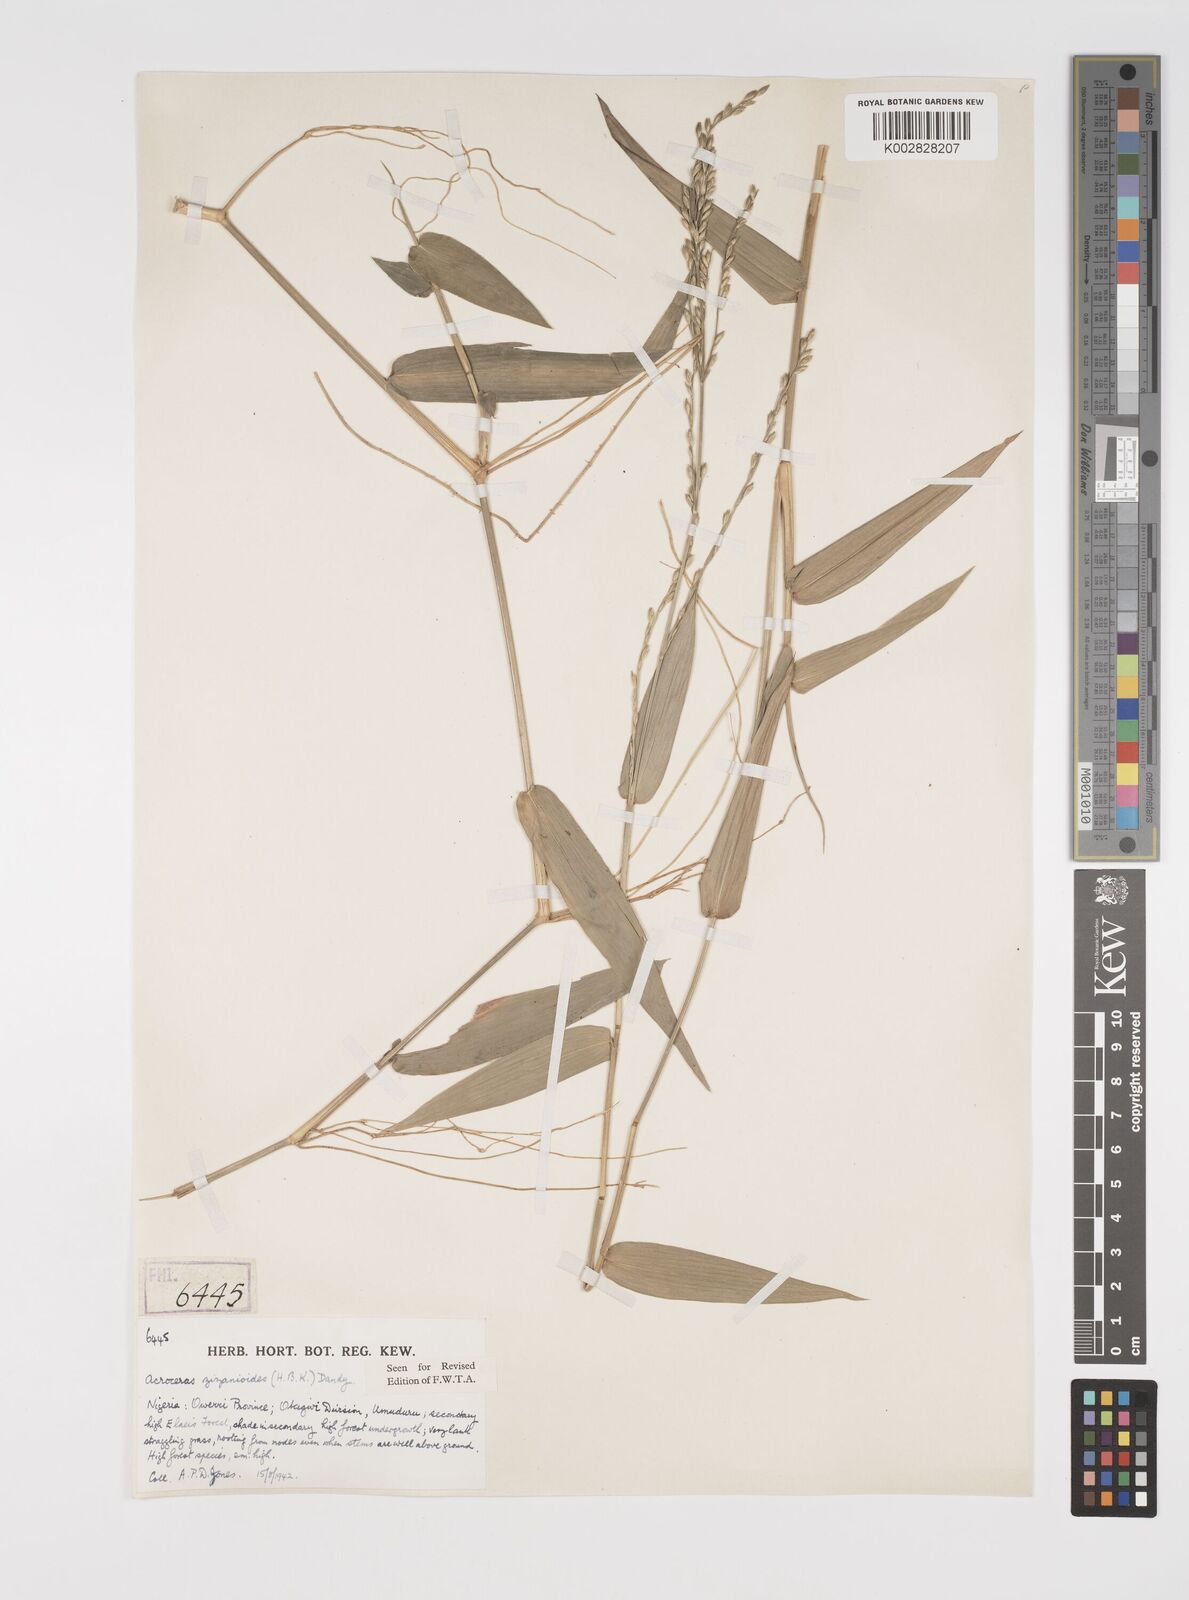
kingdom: Plantae
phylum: Tracheophyta
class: Liliopsida
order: Poales
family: Poaceae
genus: Acroceras
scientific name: Acroceras zizanioides
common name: Oat grass
